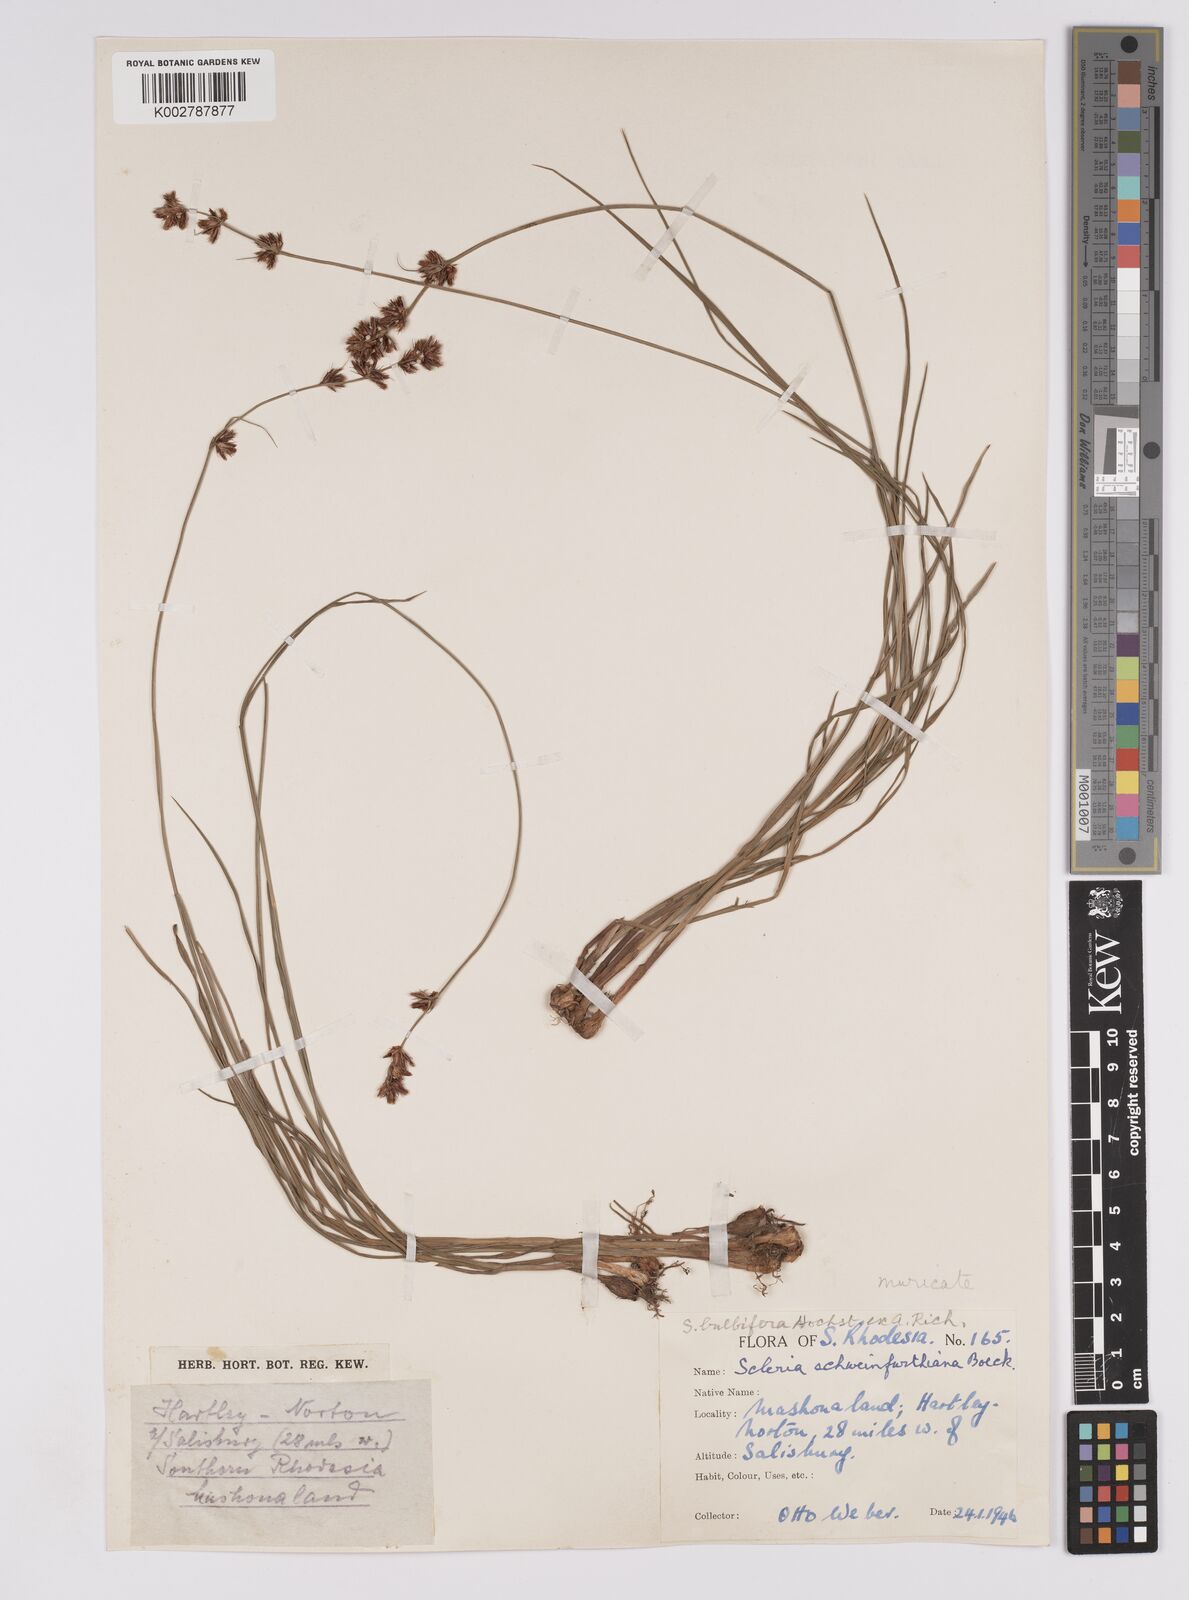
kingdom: Plantae
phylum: Tracheophyta
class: Liliopsida
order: Poales
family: Cyperaceae
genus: Scleria
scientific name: Scleria bulbifera
